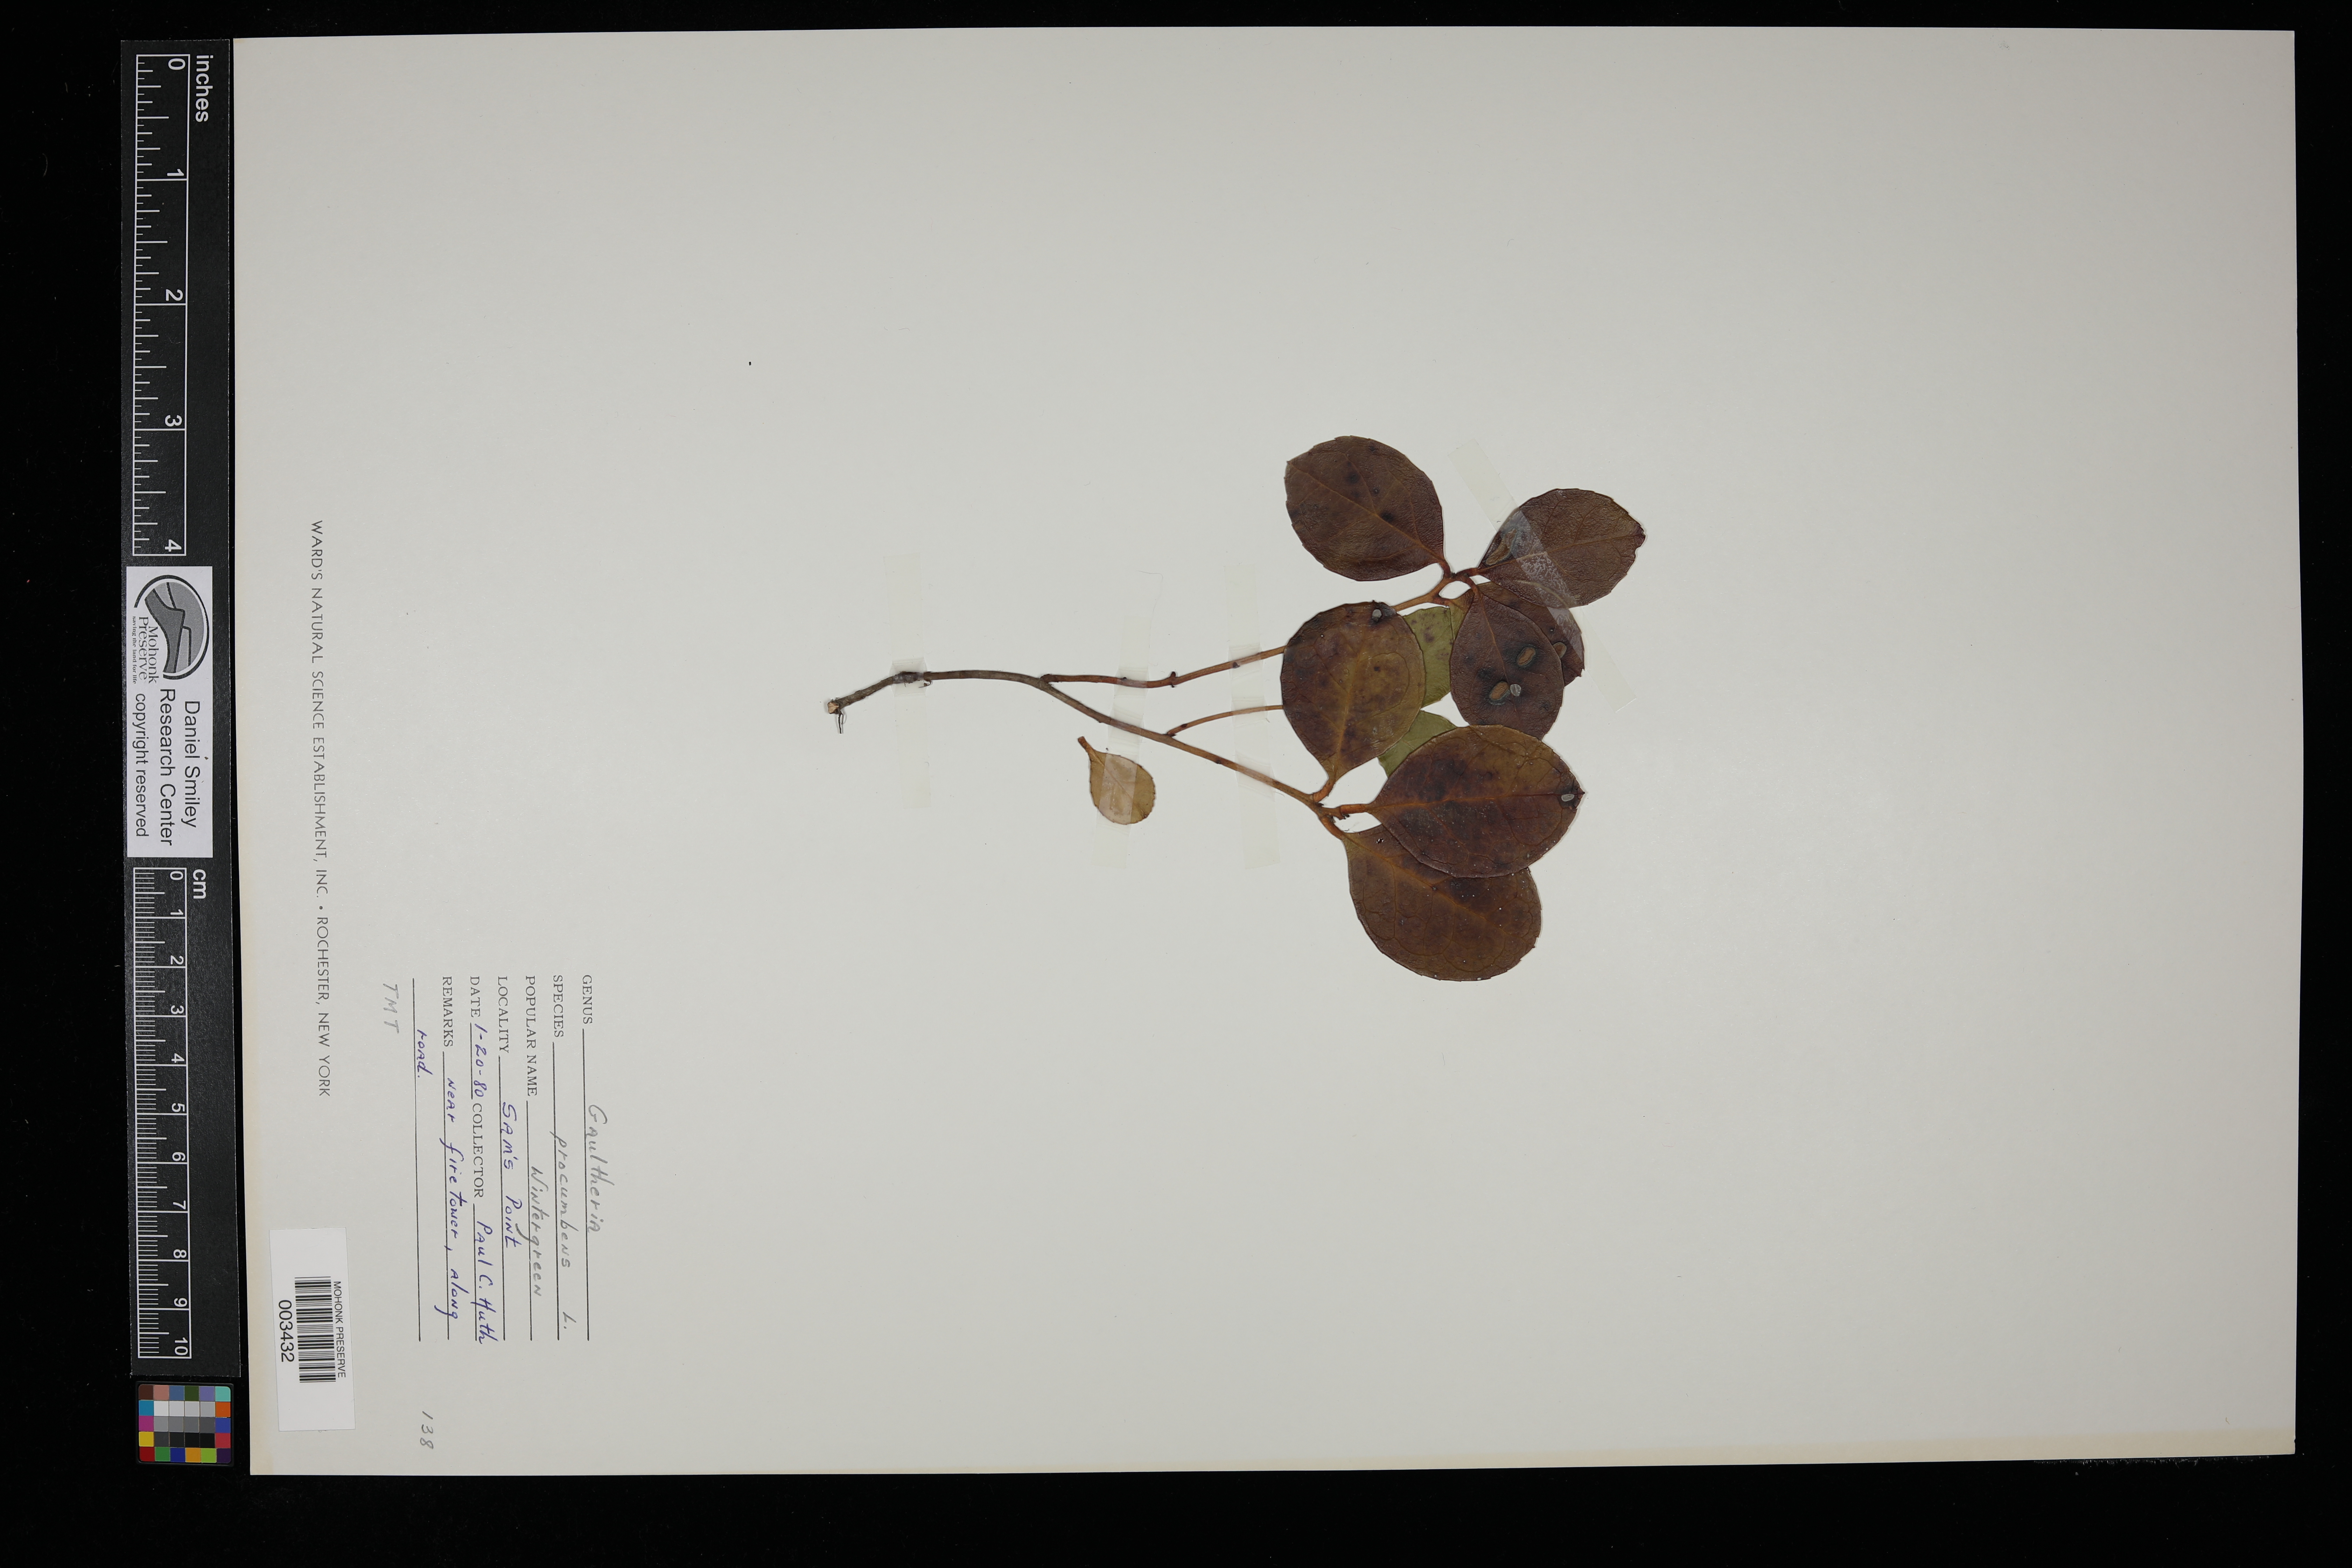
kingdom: Plantae
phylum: Tracheophyta
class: Magnoliopsida
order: Ericales
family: Ericaceae
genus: Gaultheria
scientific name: Gaultheria procumbens
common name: Checkerberry
